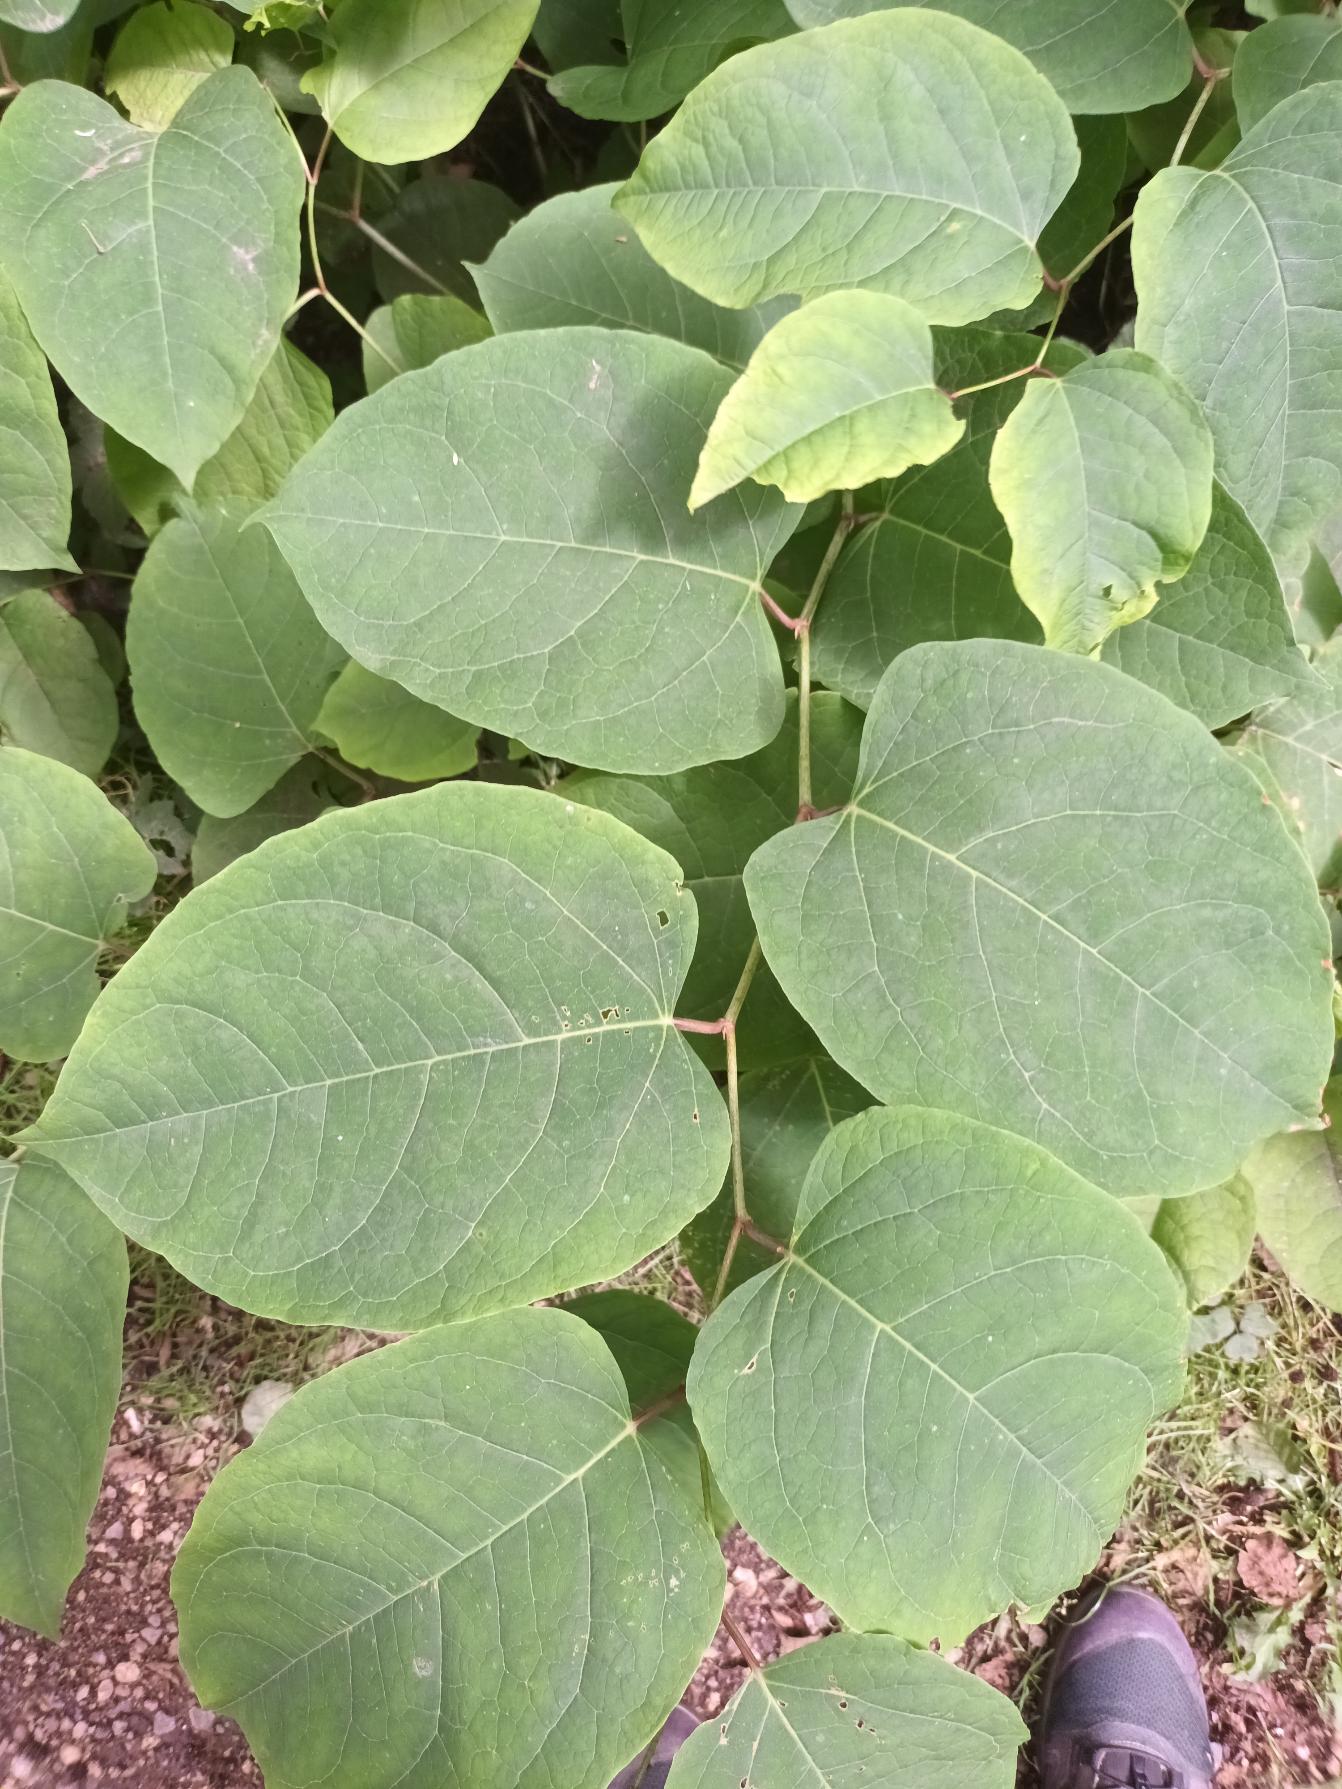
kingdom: Plantae
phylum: Tracheophyta
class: Magnoliopsida
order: Caryophyllales
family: Polygonaceae
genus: Reynoutria
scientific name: Reynoutria bohemica
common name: Hybrid-pileurt
